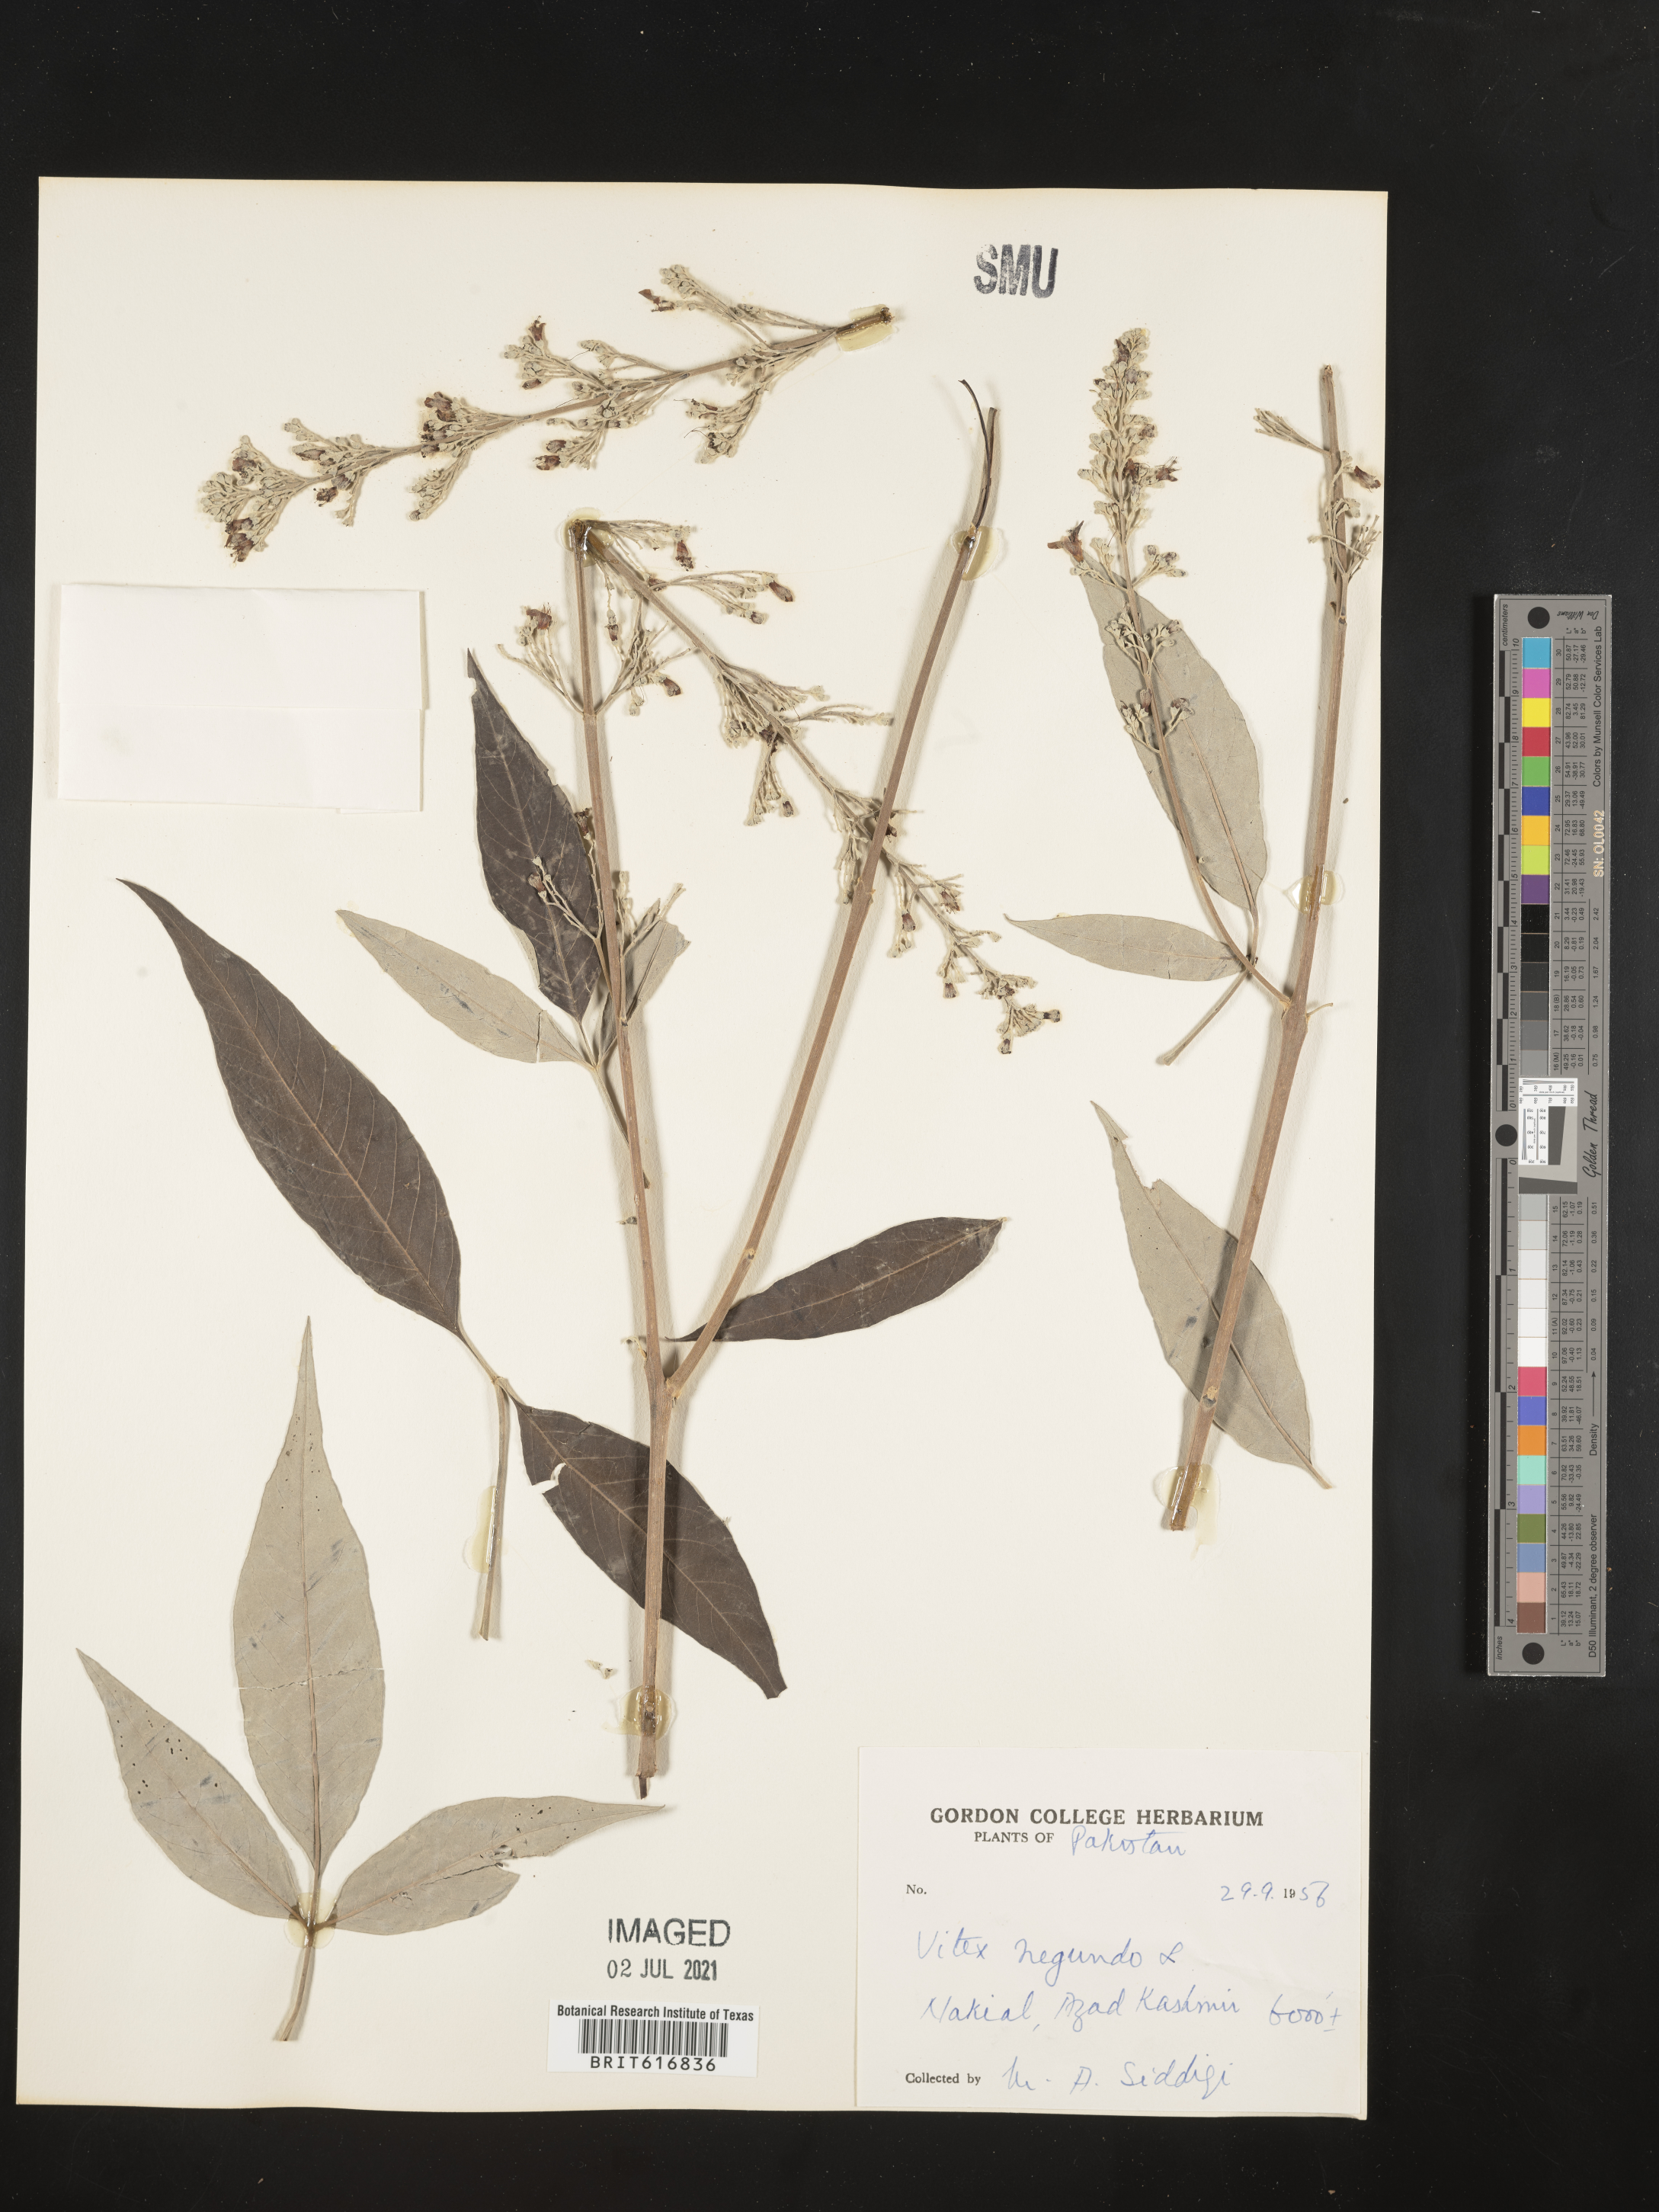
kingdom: Plantae
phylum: Tracheophyta
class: Magnoliopsida
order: Lamiales
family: Lamiaceae
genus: Vitex
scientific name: Vitex negundo
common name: Chinese chastetree
